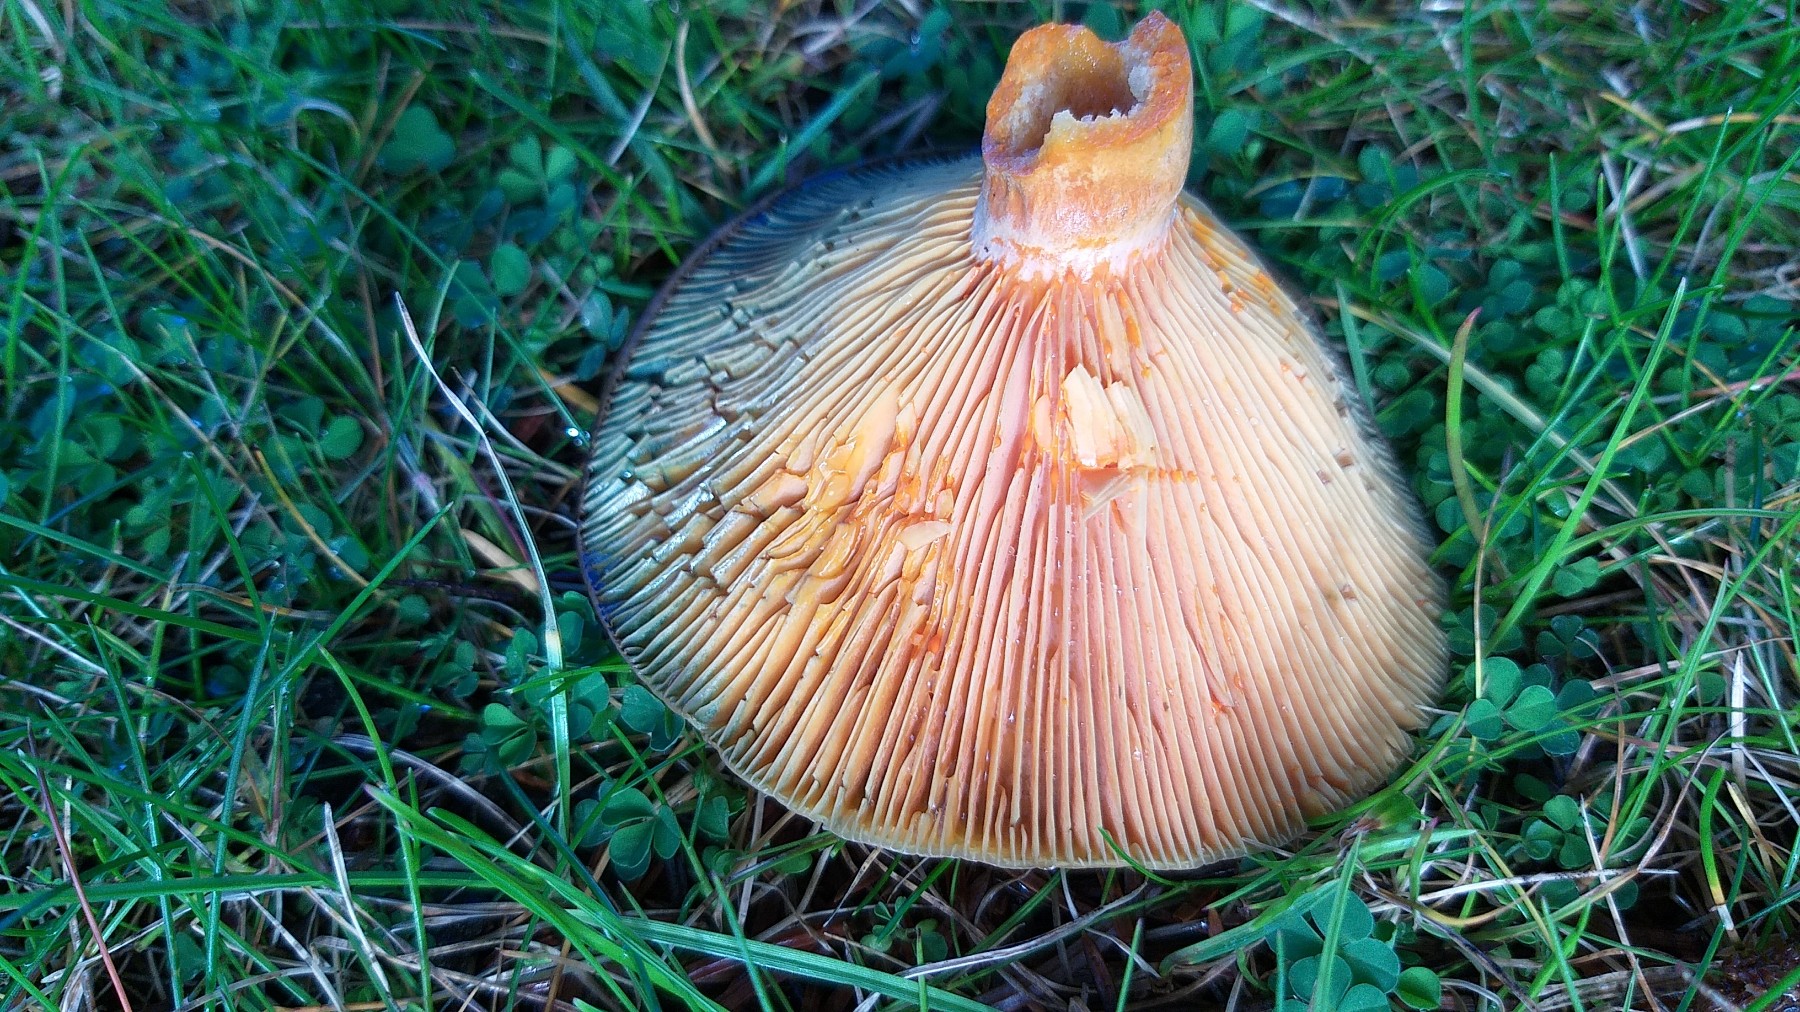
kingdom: Fungi
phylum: Basidiomycota
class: Agaricomycetes
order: Russulales
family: Russulaceae
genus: Lactarius
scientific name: Lactarius deterrimus
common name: gran-mælkehat
